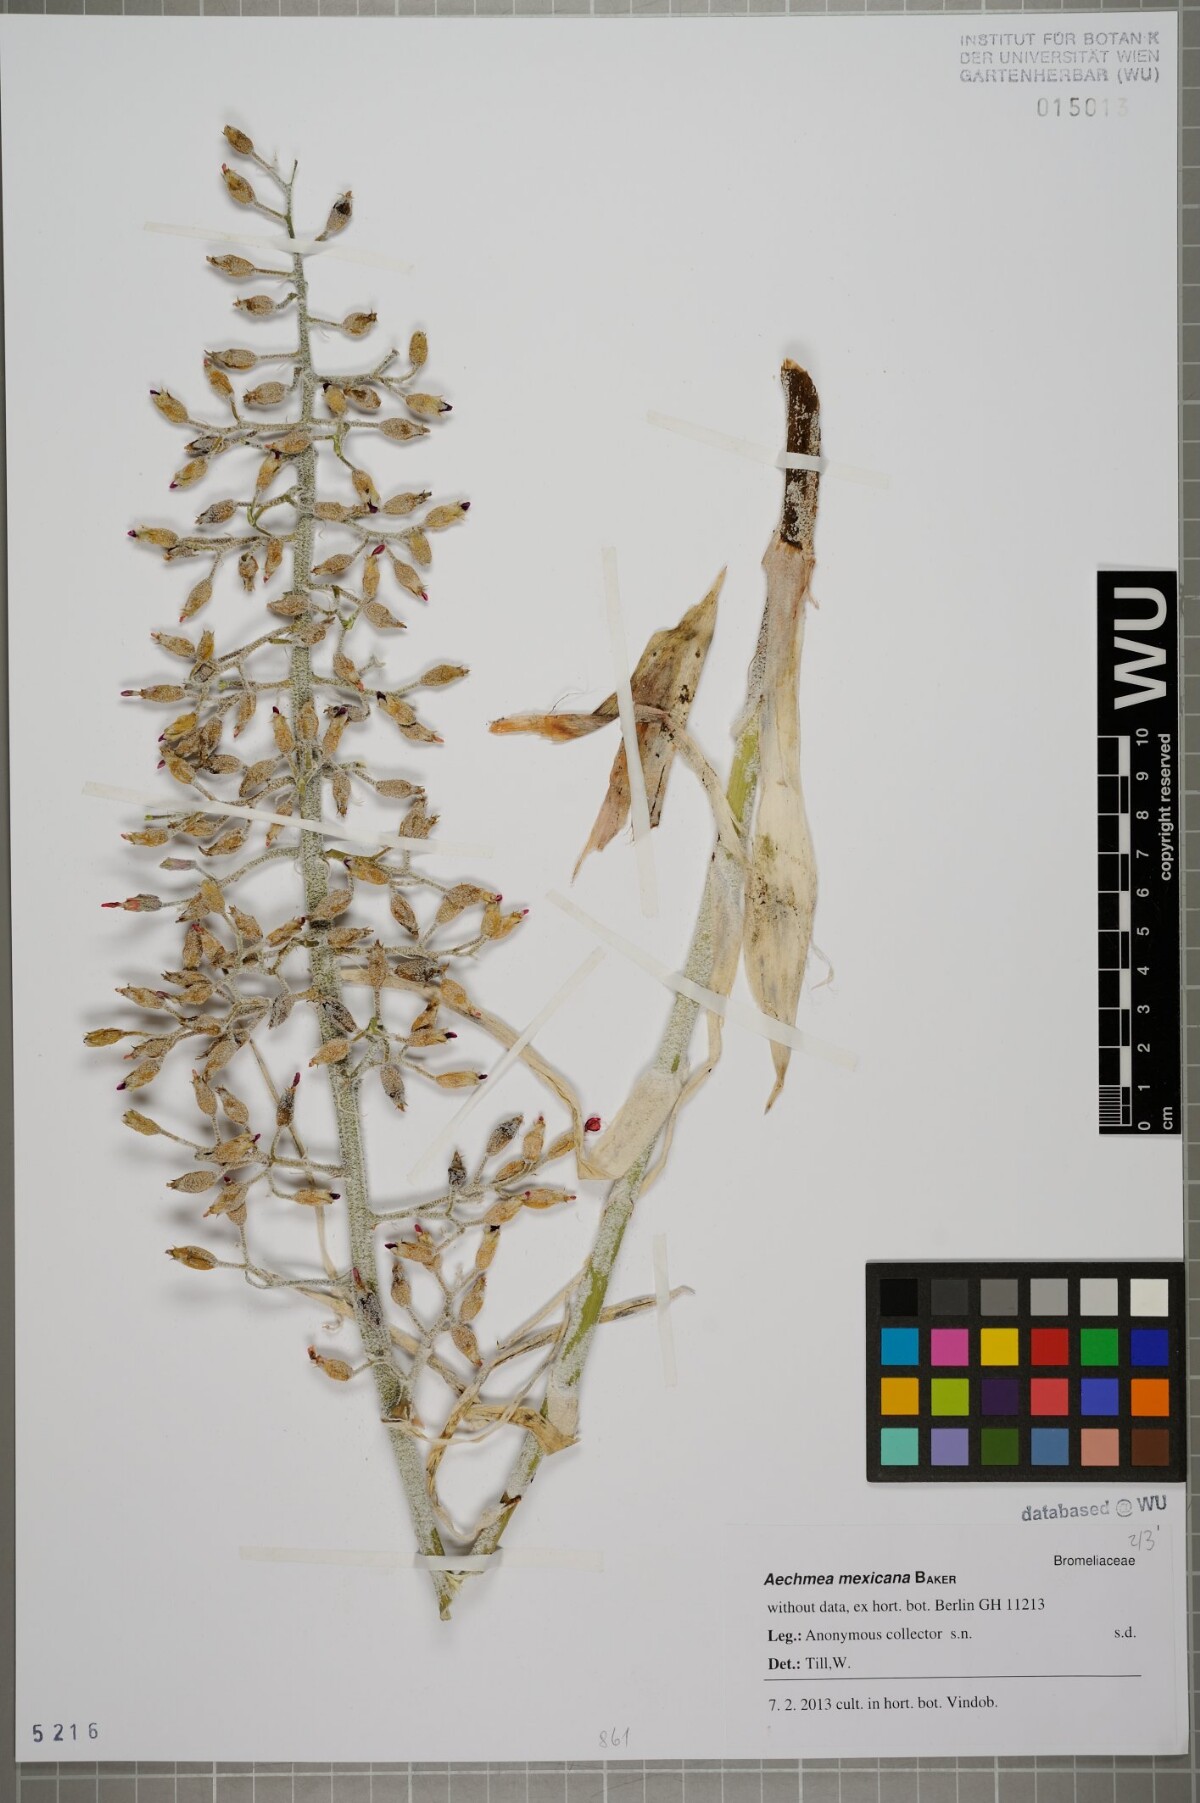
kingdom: Plantae
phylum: Tracheophyta
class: Liliopsida
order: Poales
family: Bromeliaceae
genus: Aechmea
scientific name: Aechmea mexicana
